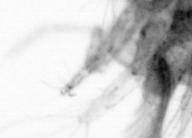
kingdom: Animalia
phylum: Arthropoda
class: Copepoda
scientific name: Copepoda
